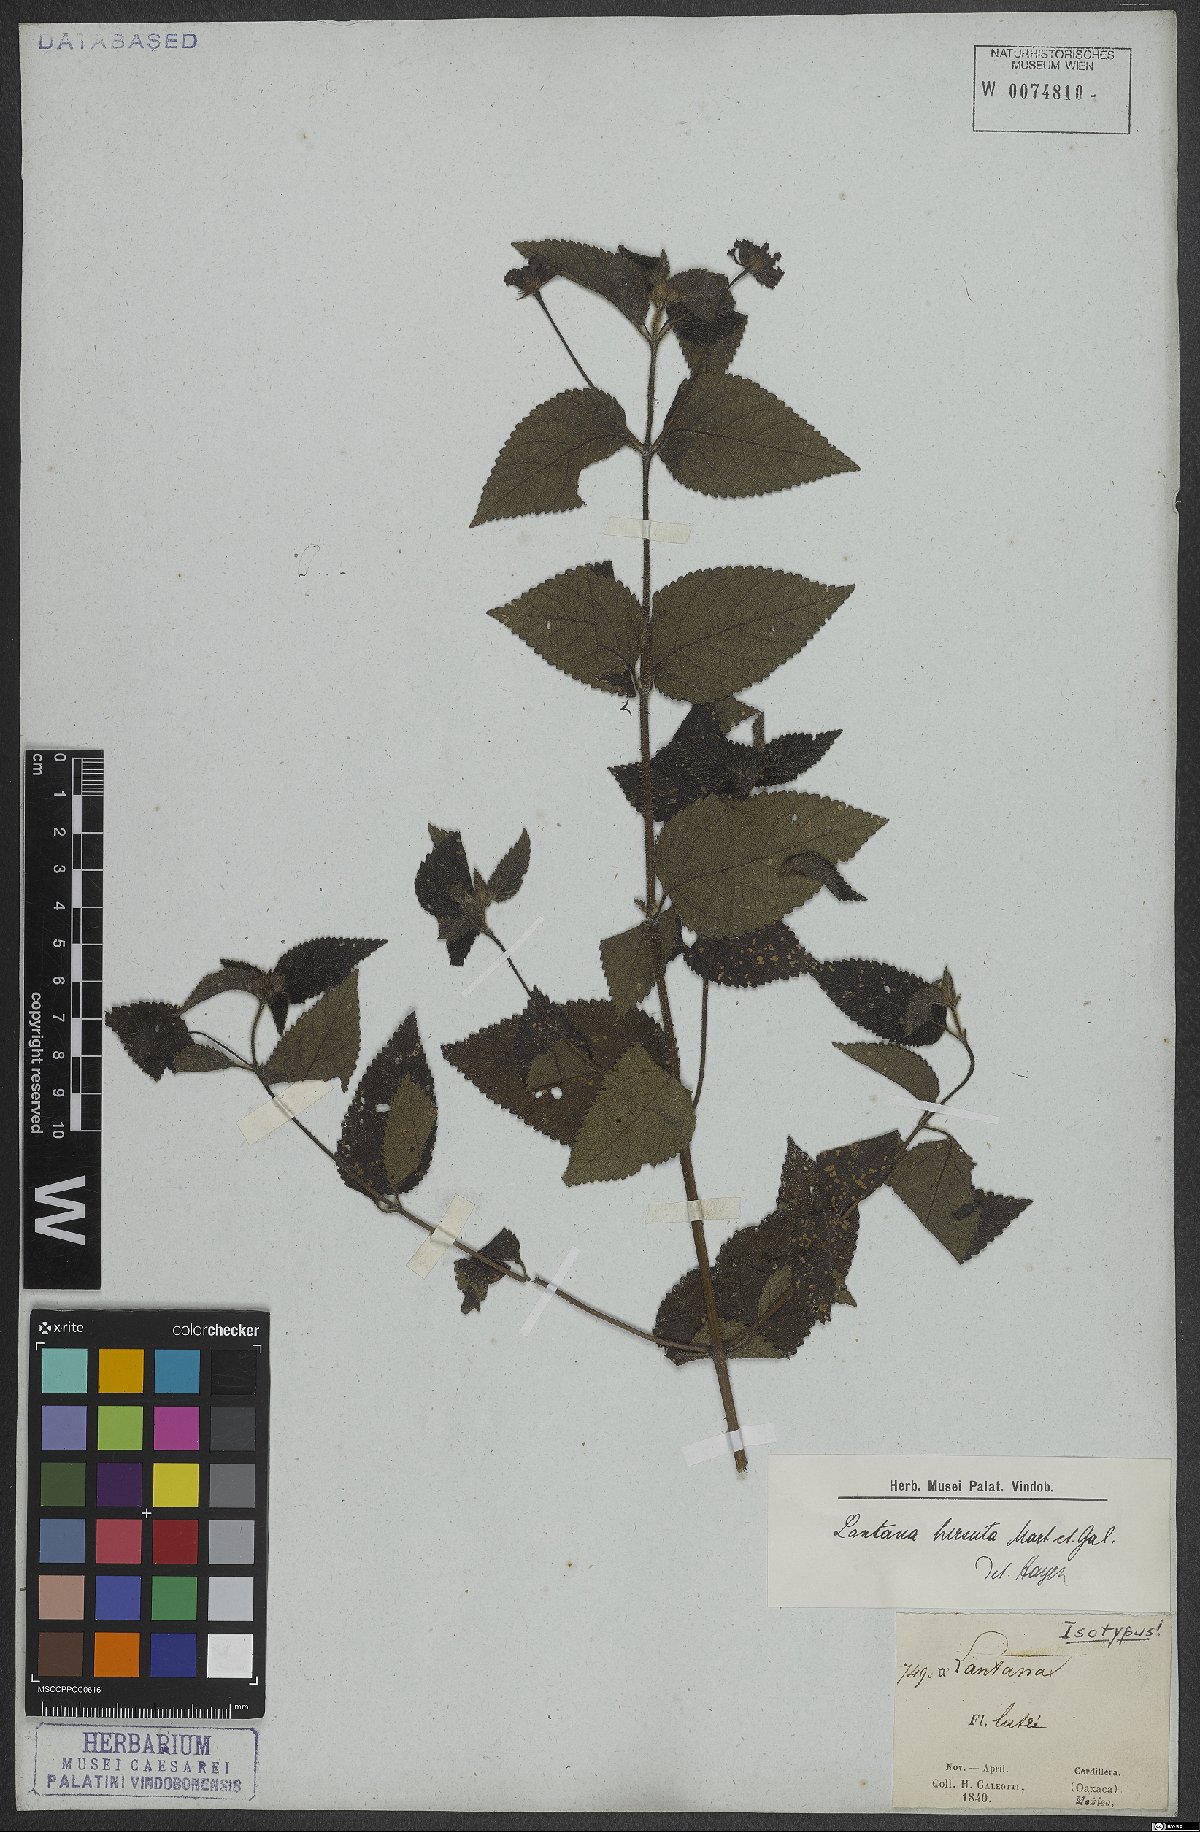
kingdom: Plantae
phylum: Tracheophyta
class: Magnoliopsida
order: Lamiales
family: Verbenaceae
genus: Lantana
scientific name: Lantana hirsuta
